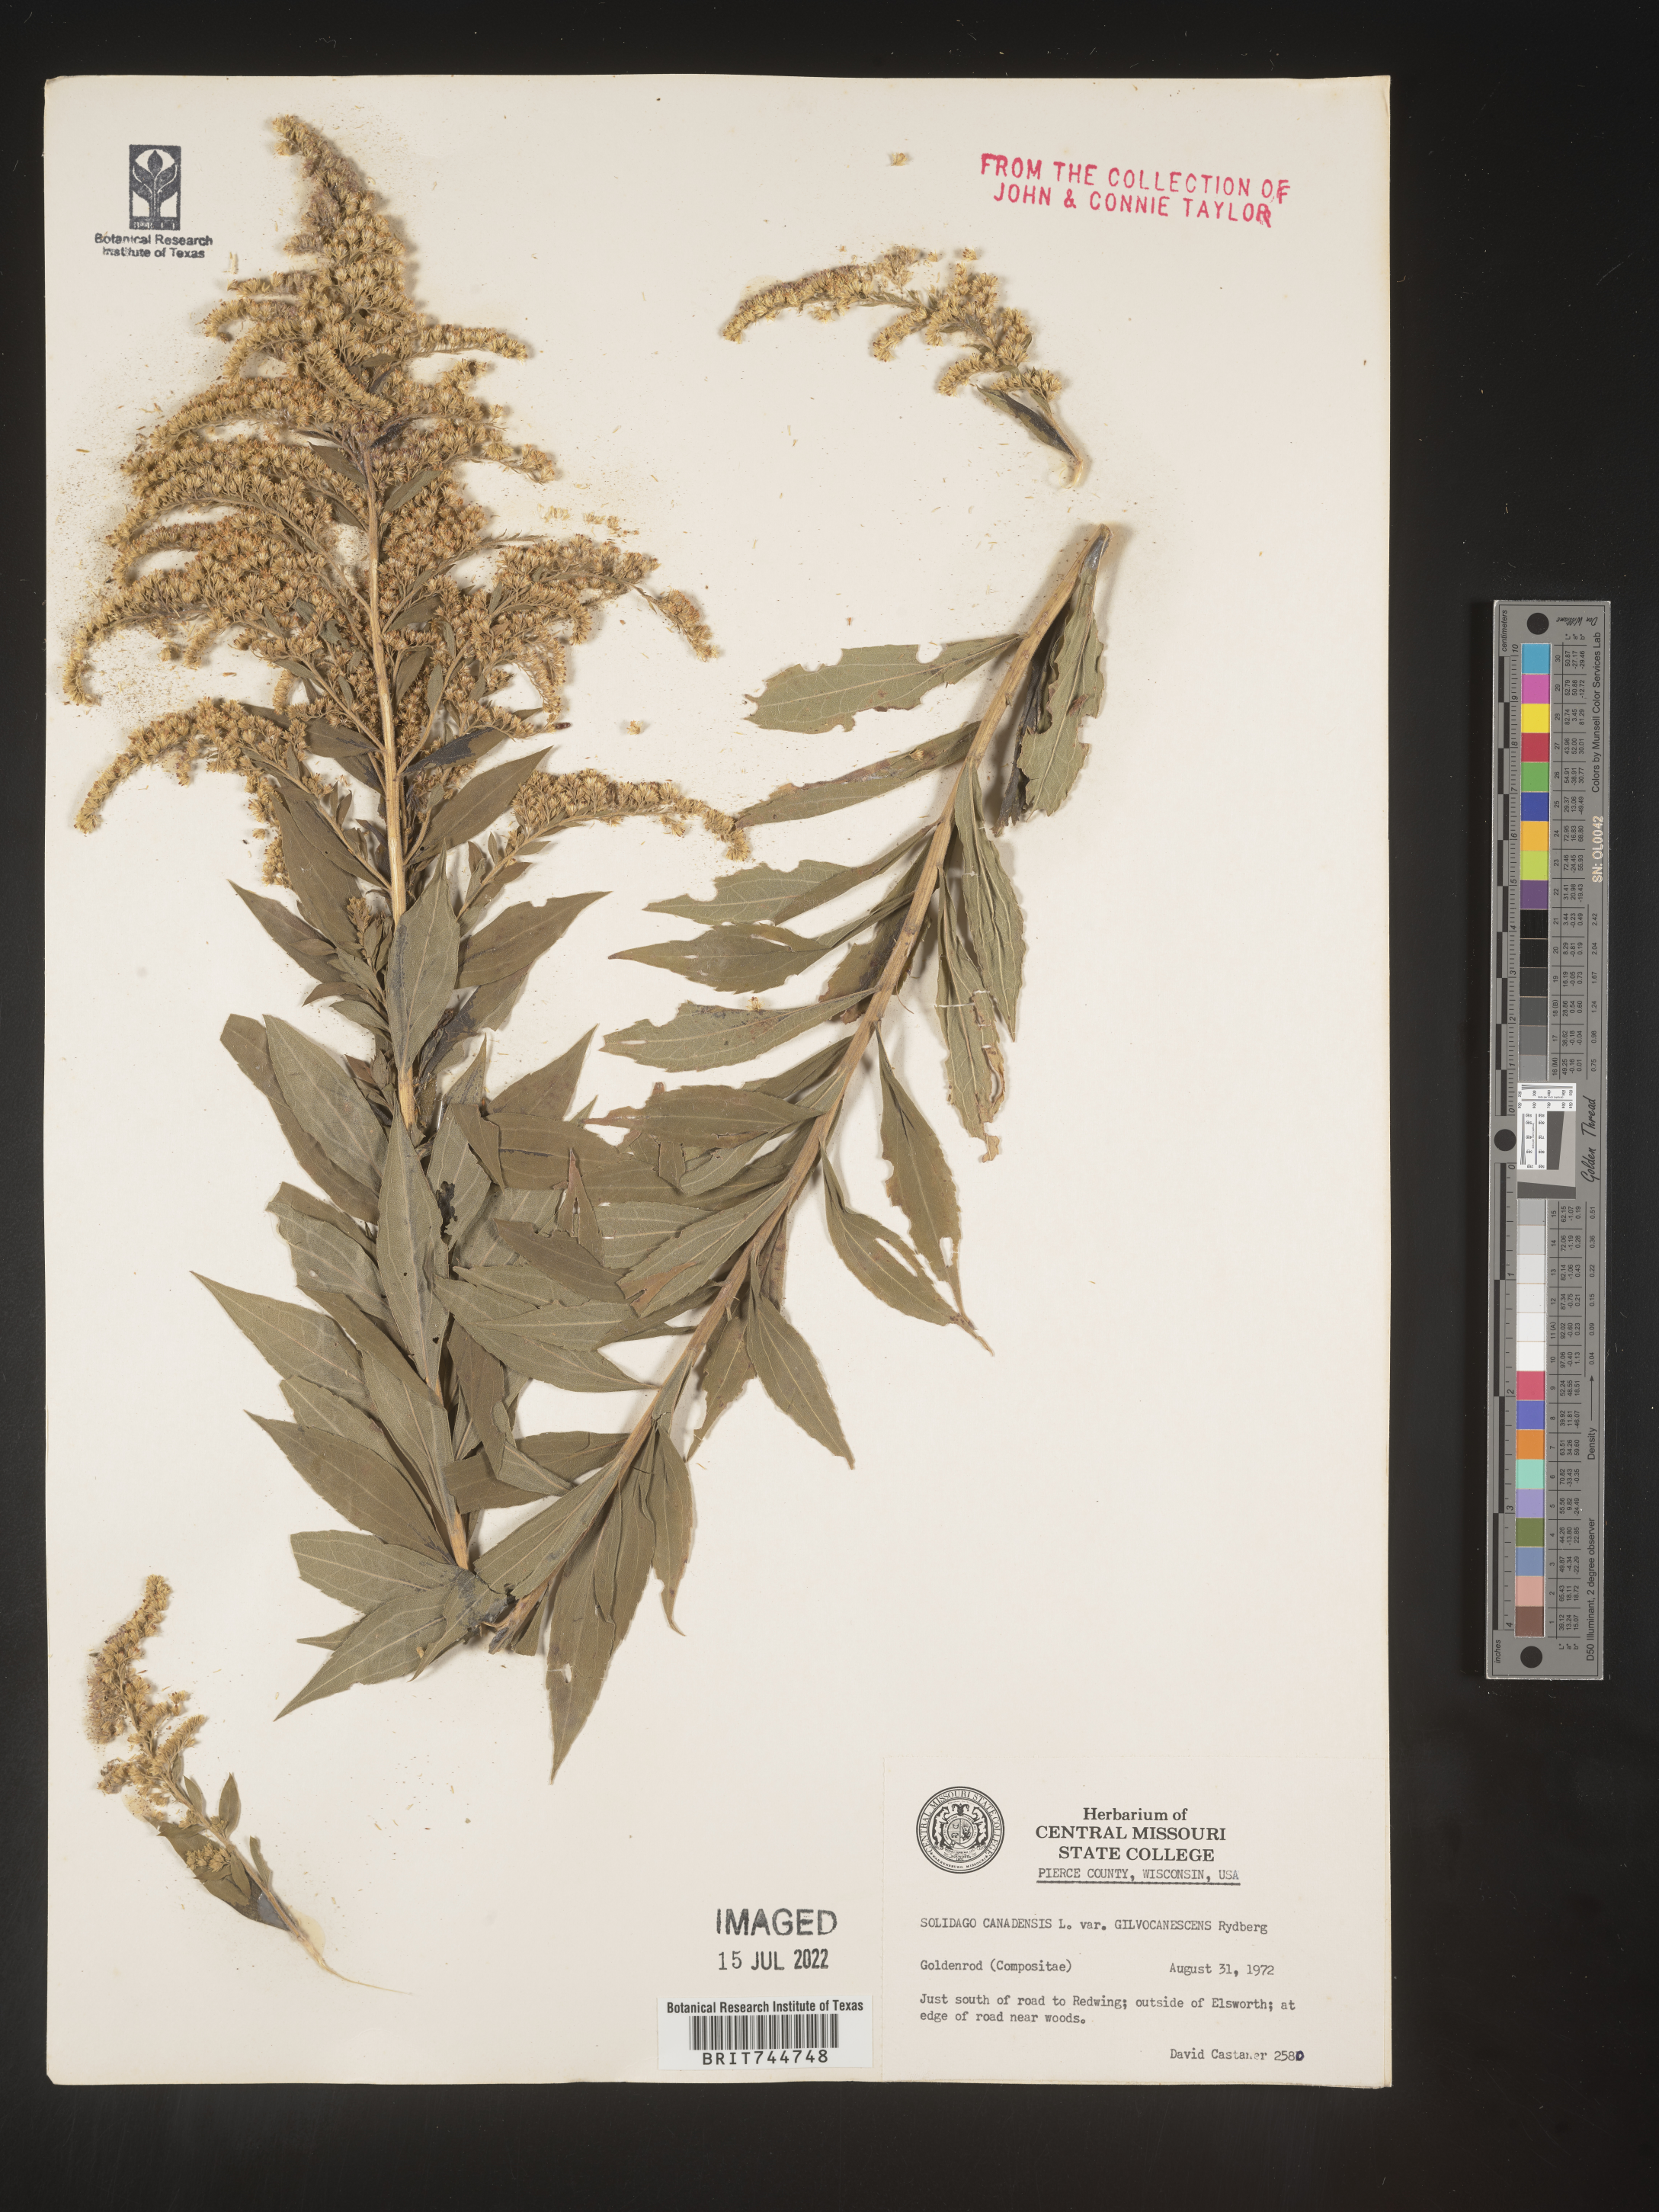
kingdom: Plantae
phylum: Tracheophyta
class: Magnoliopsida
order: Asterales
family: Asteraceae
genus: Solidago
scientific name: Solidago canadensis
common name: Canada goldenrod
